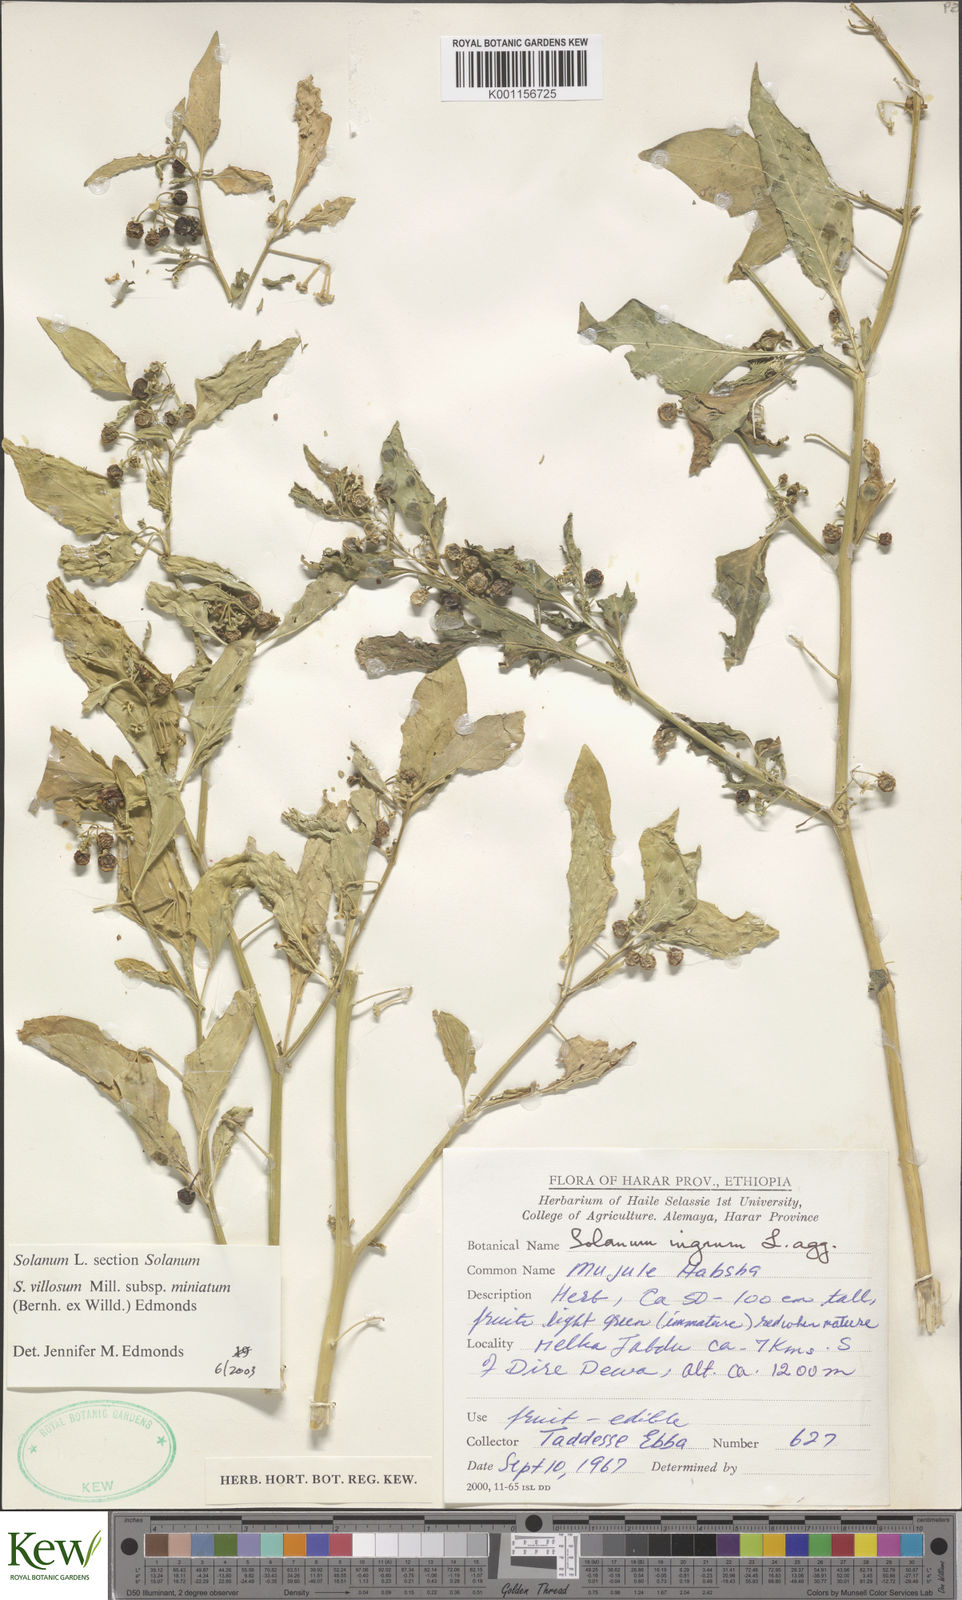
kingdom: Plantae
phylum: Tracheophyta
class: Magnoliopsida
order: Solanales
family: Solanaceae
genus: Solanum
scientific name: Solanum villosum
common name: Red nightshade
